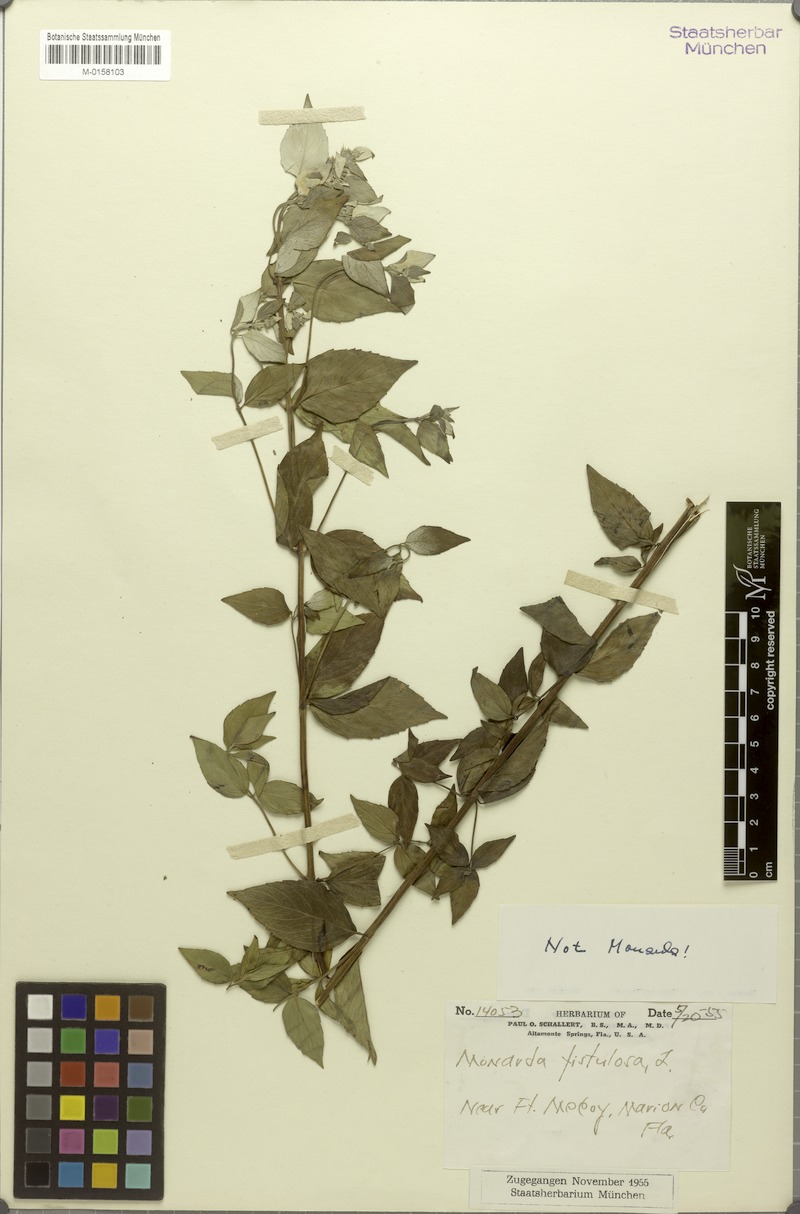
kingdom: Plantae
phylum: Tracheophyta
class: Magnoliopsida
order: Lamiales
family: Lamiaceae
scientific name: Lamiaceae
